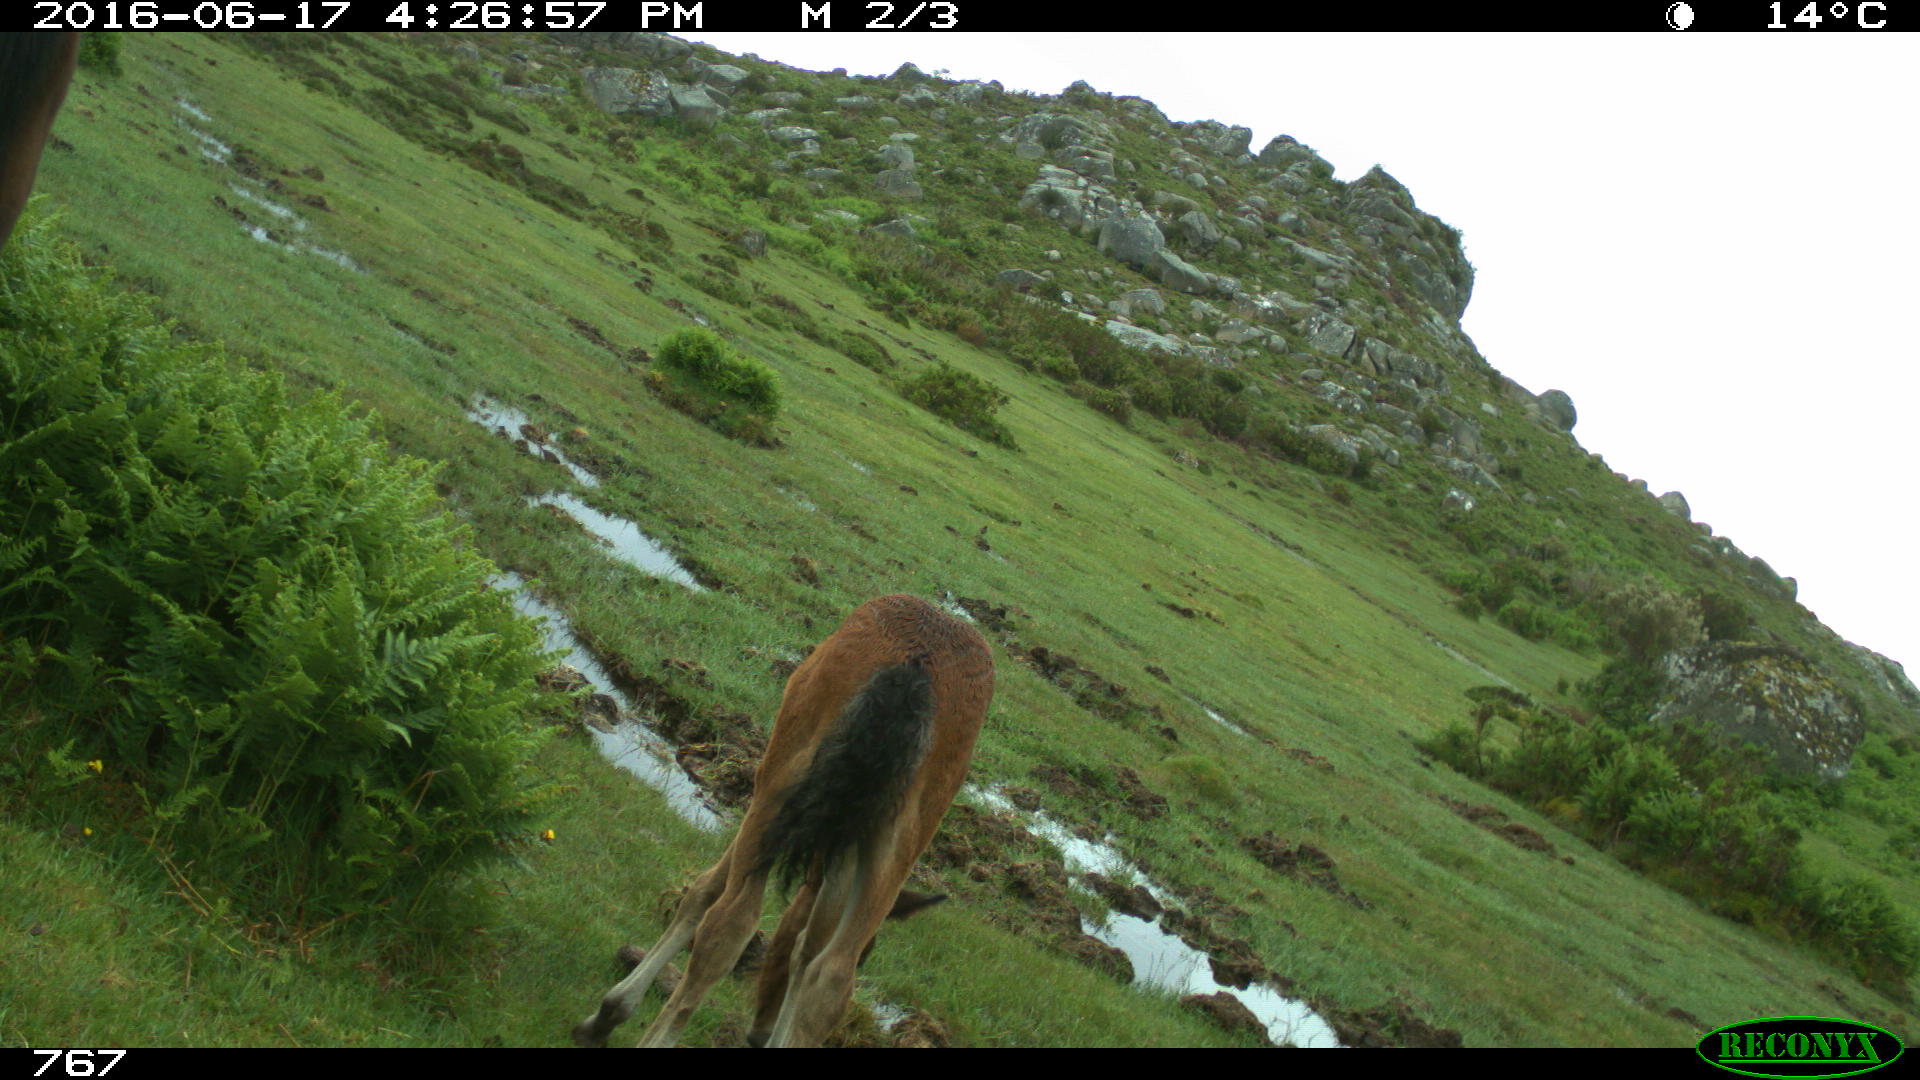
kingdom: Animalia
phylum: Chordata
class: Mammalia
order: Perissodactyla
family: Equidae
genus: Equus
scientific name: Equus caballus
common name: Horse
